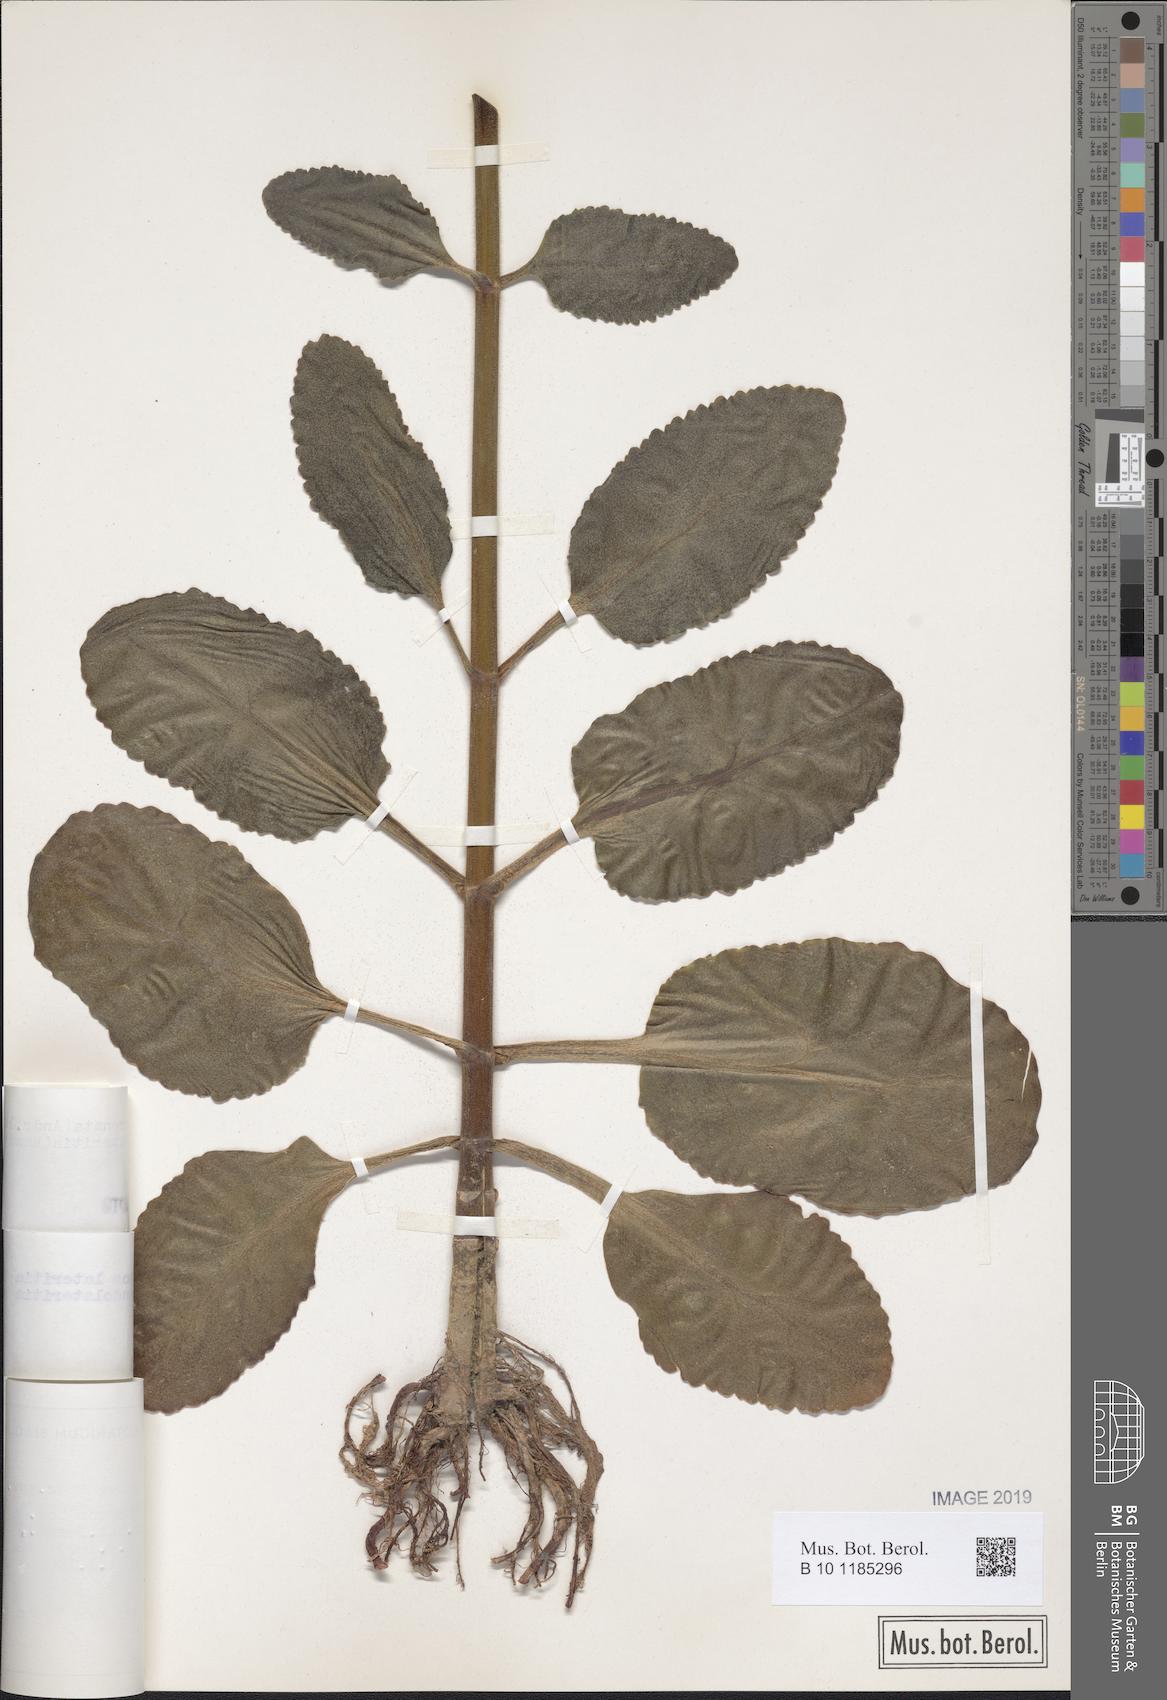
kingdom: Plantae
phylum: Tracheophyta
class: Magnoliopsida
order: Saxifragales
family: Crassulaceae
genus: Kalanchoe
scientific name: Kalanchoe lateritia
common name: Kalanchoe
